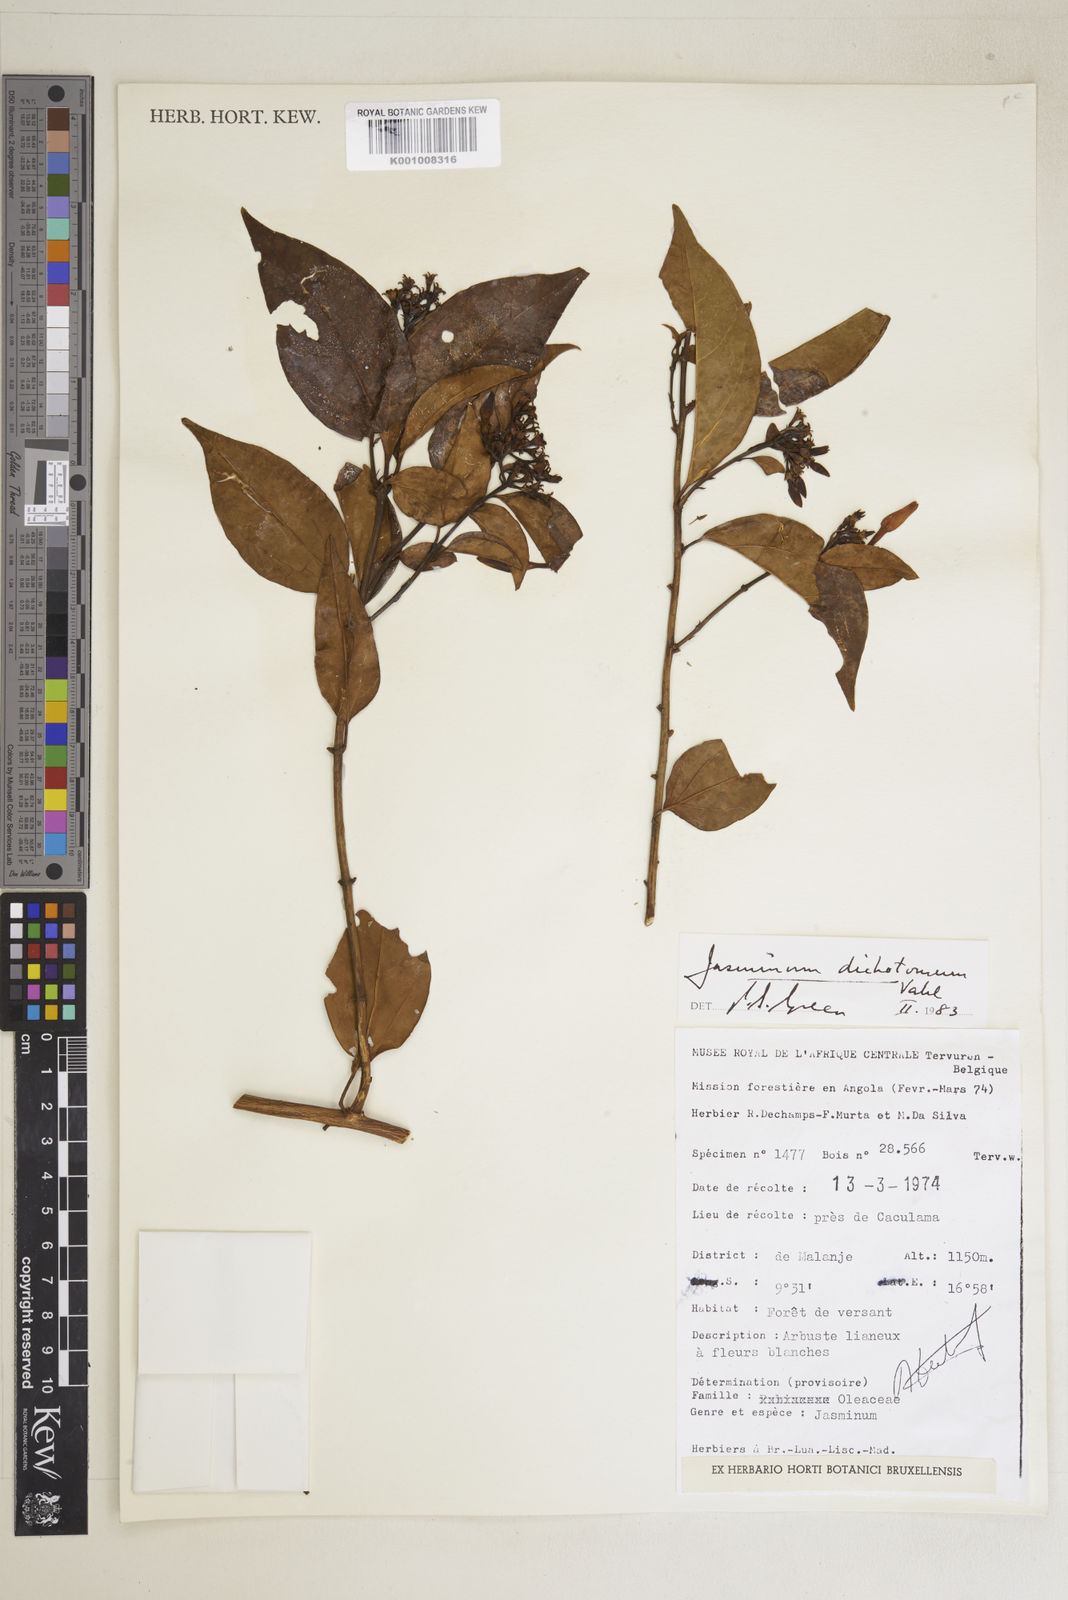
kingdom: Plantae
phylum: Tracheophyta
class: Magnoliopsida
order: Lamiales
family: Oleaceae
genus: Jasminum
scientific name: Jasminum nepalense
